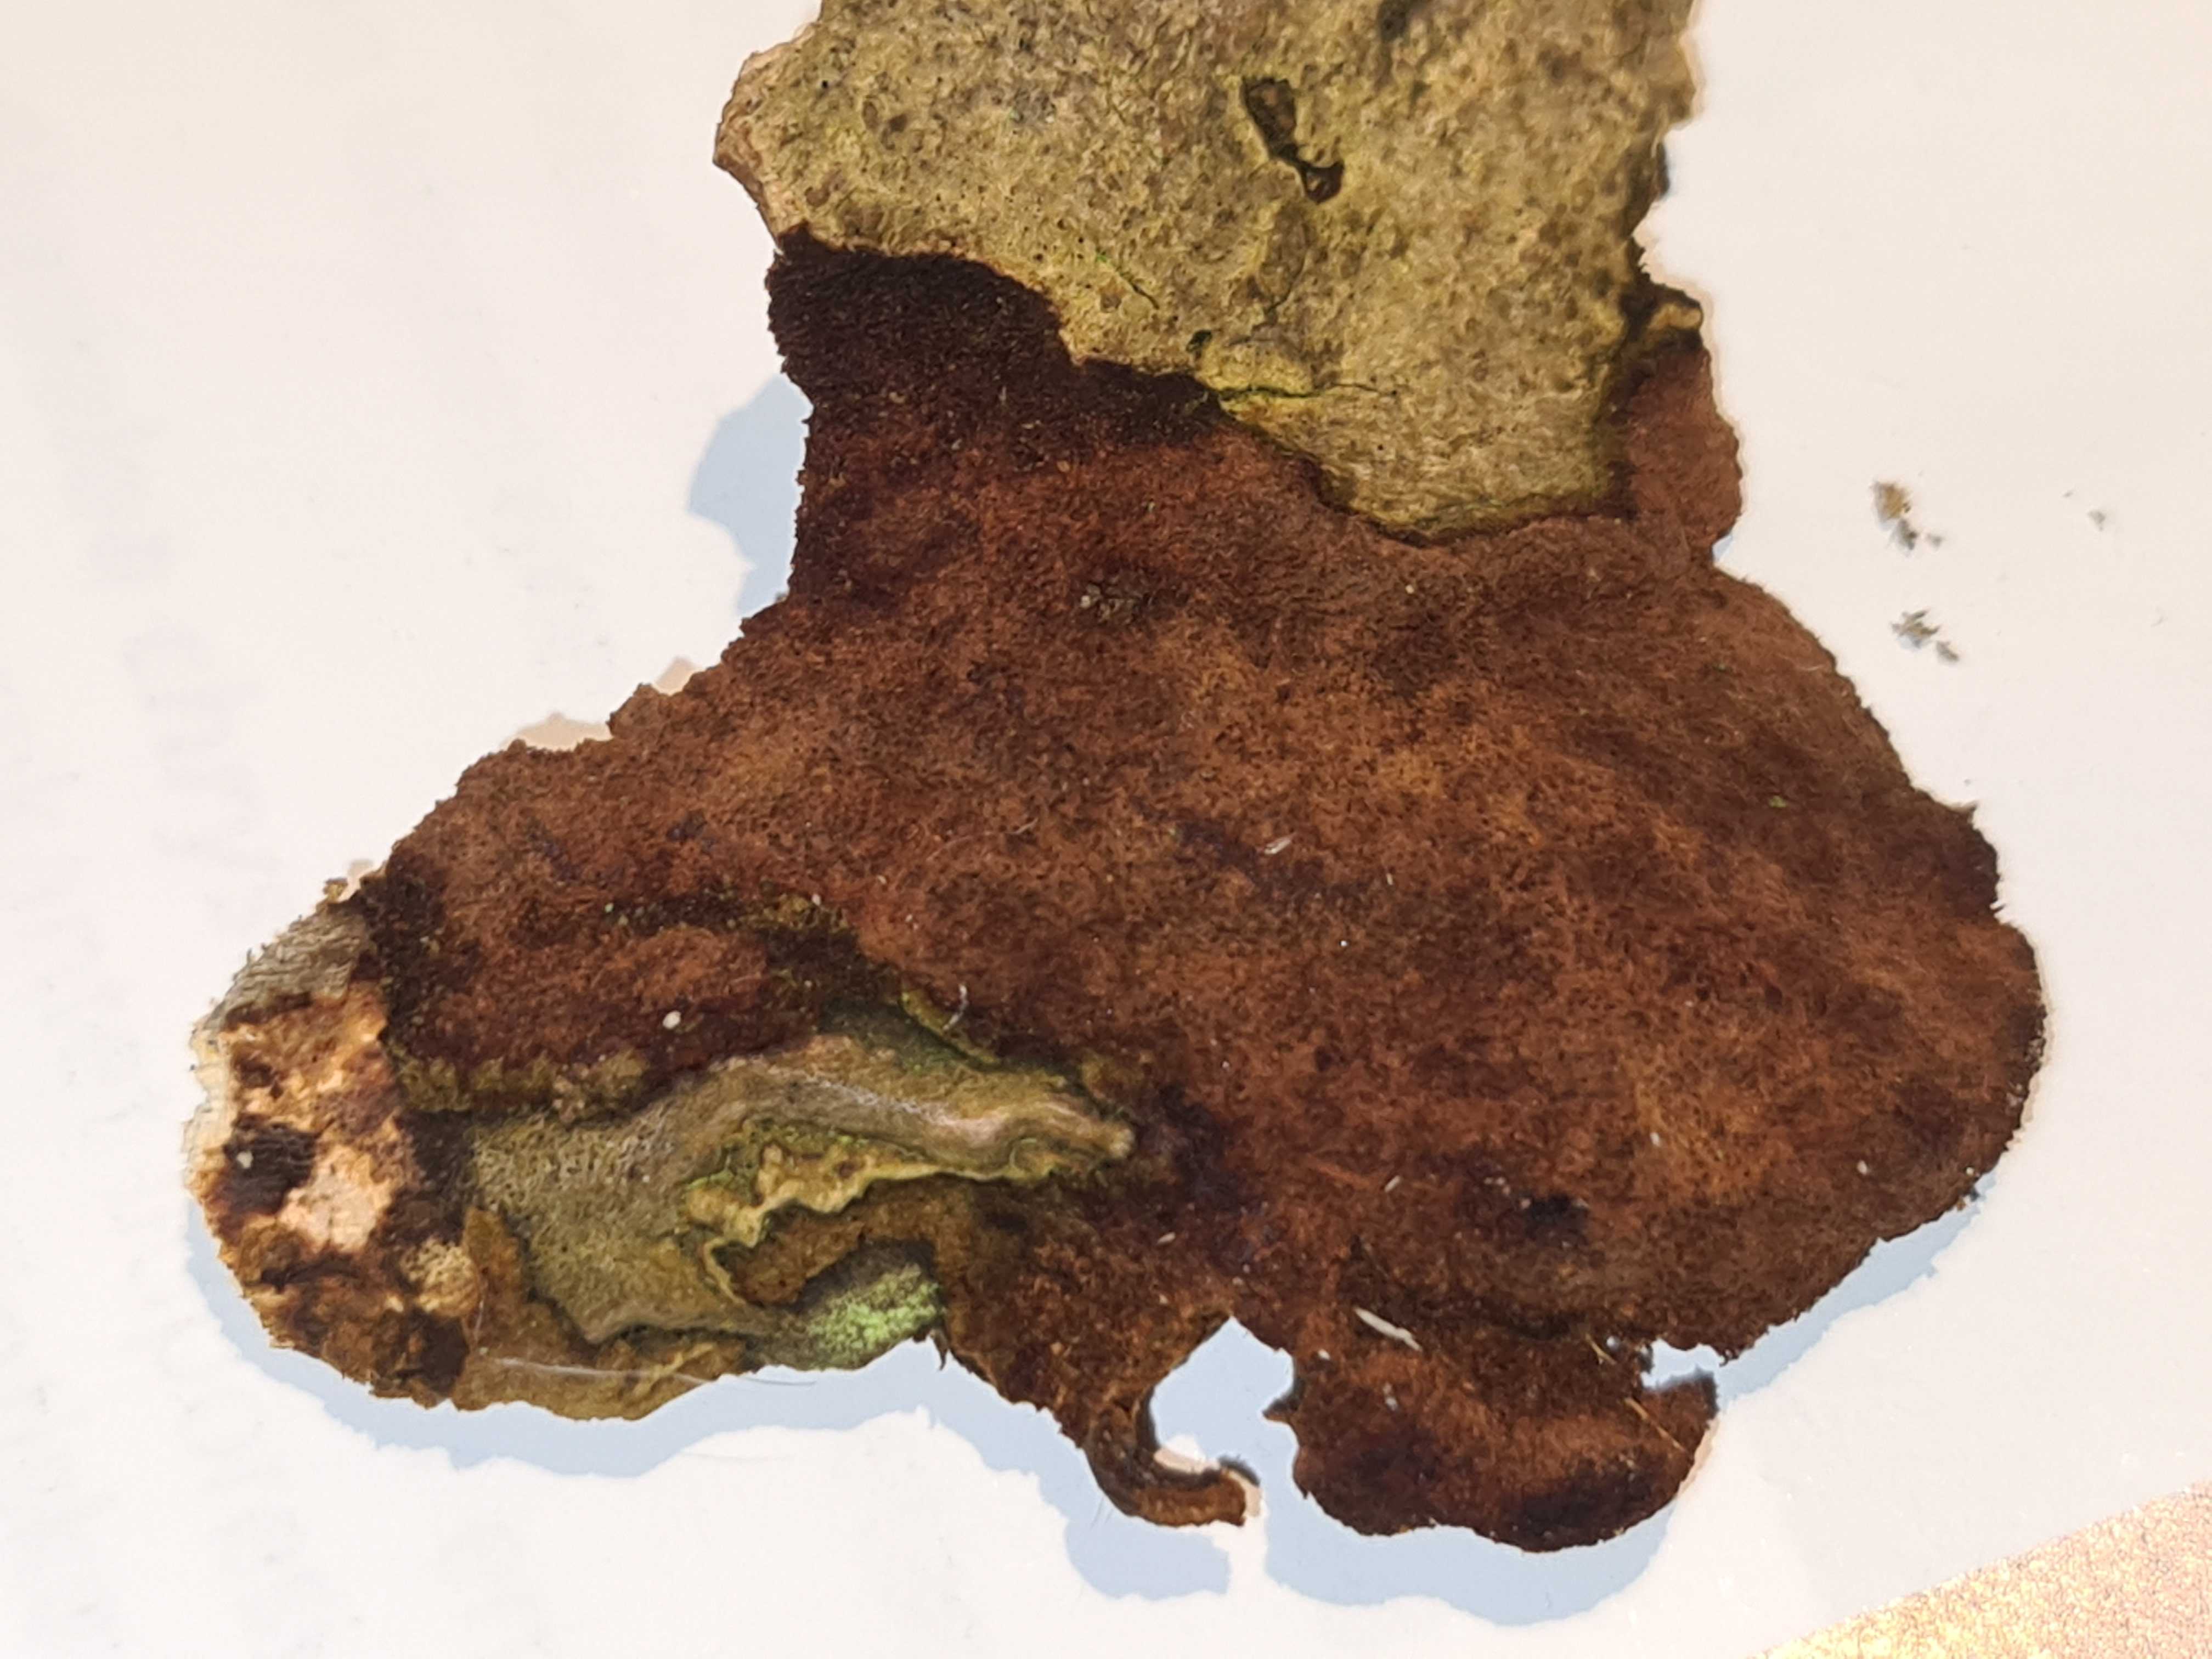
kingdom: Fungi
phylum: Basidiomycota
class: Agaricomycetes
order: Hymenochaetales
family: Hymenochaetaceae
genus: Fuscoporia
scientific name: Fuscoporia ferruginosa
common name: rustbrun ildporesvamp
